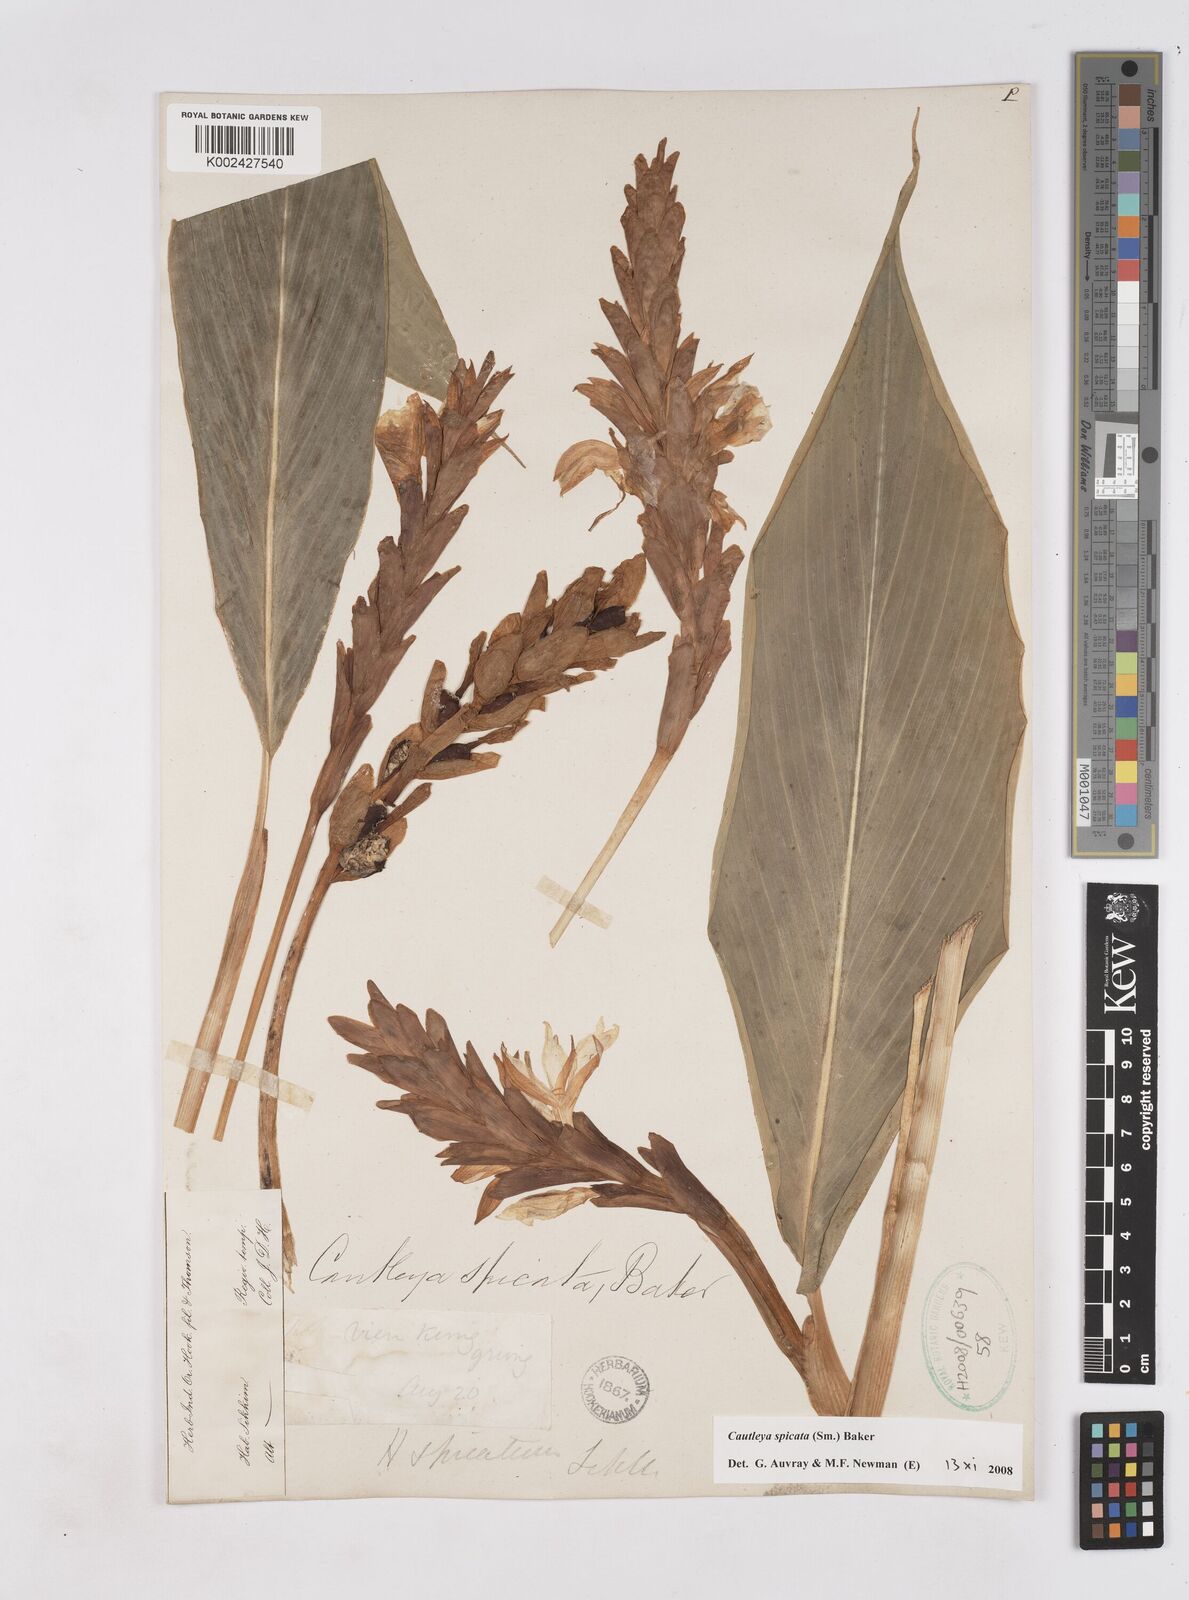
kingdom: Plantae
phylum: Tracheophyta
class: Liliopsida
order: Zingiberales
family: Zingiberaceae
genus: Cautleya
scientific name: Cautleya spicata
